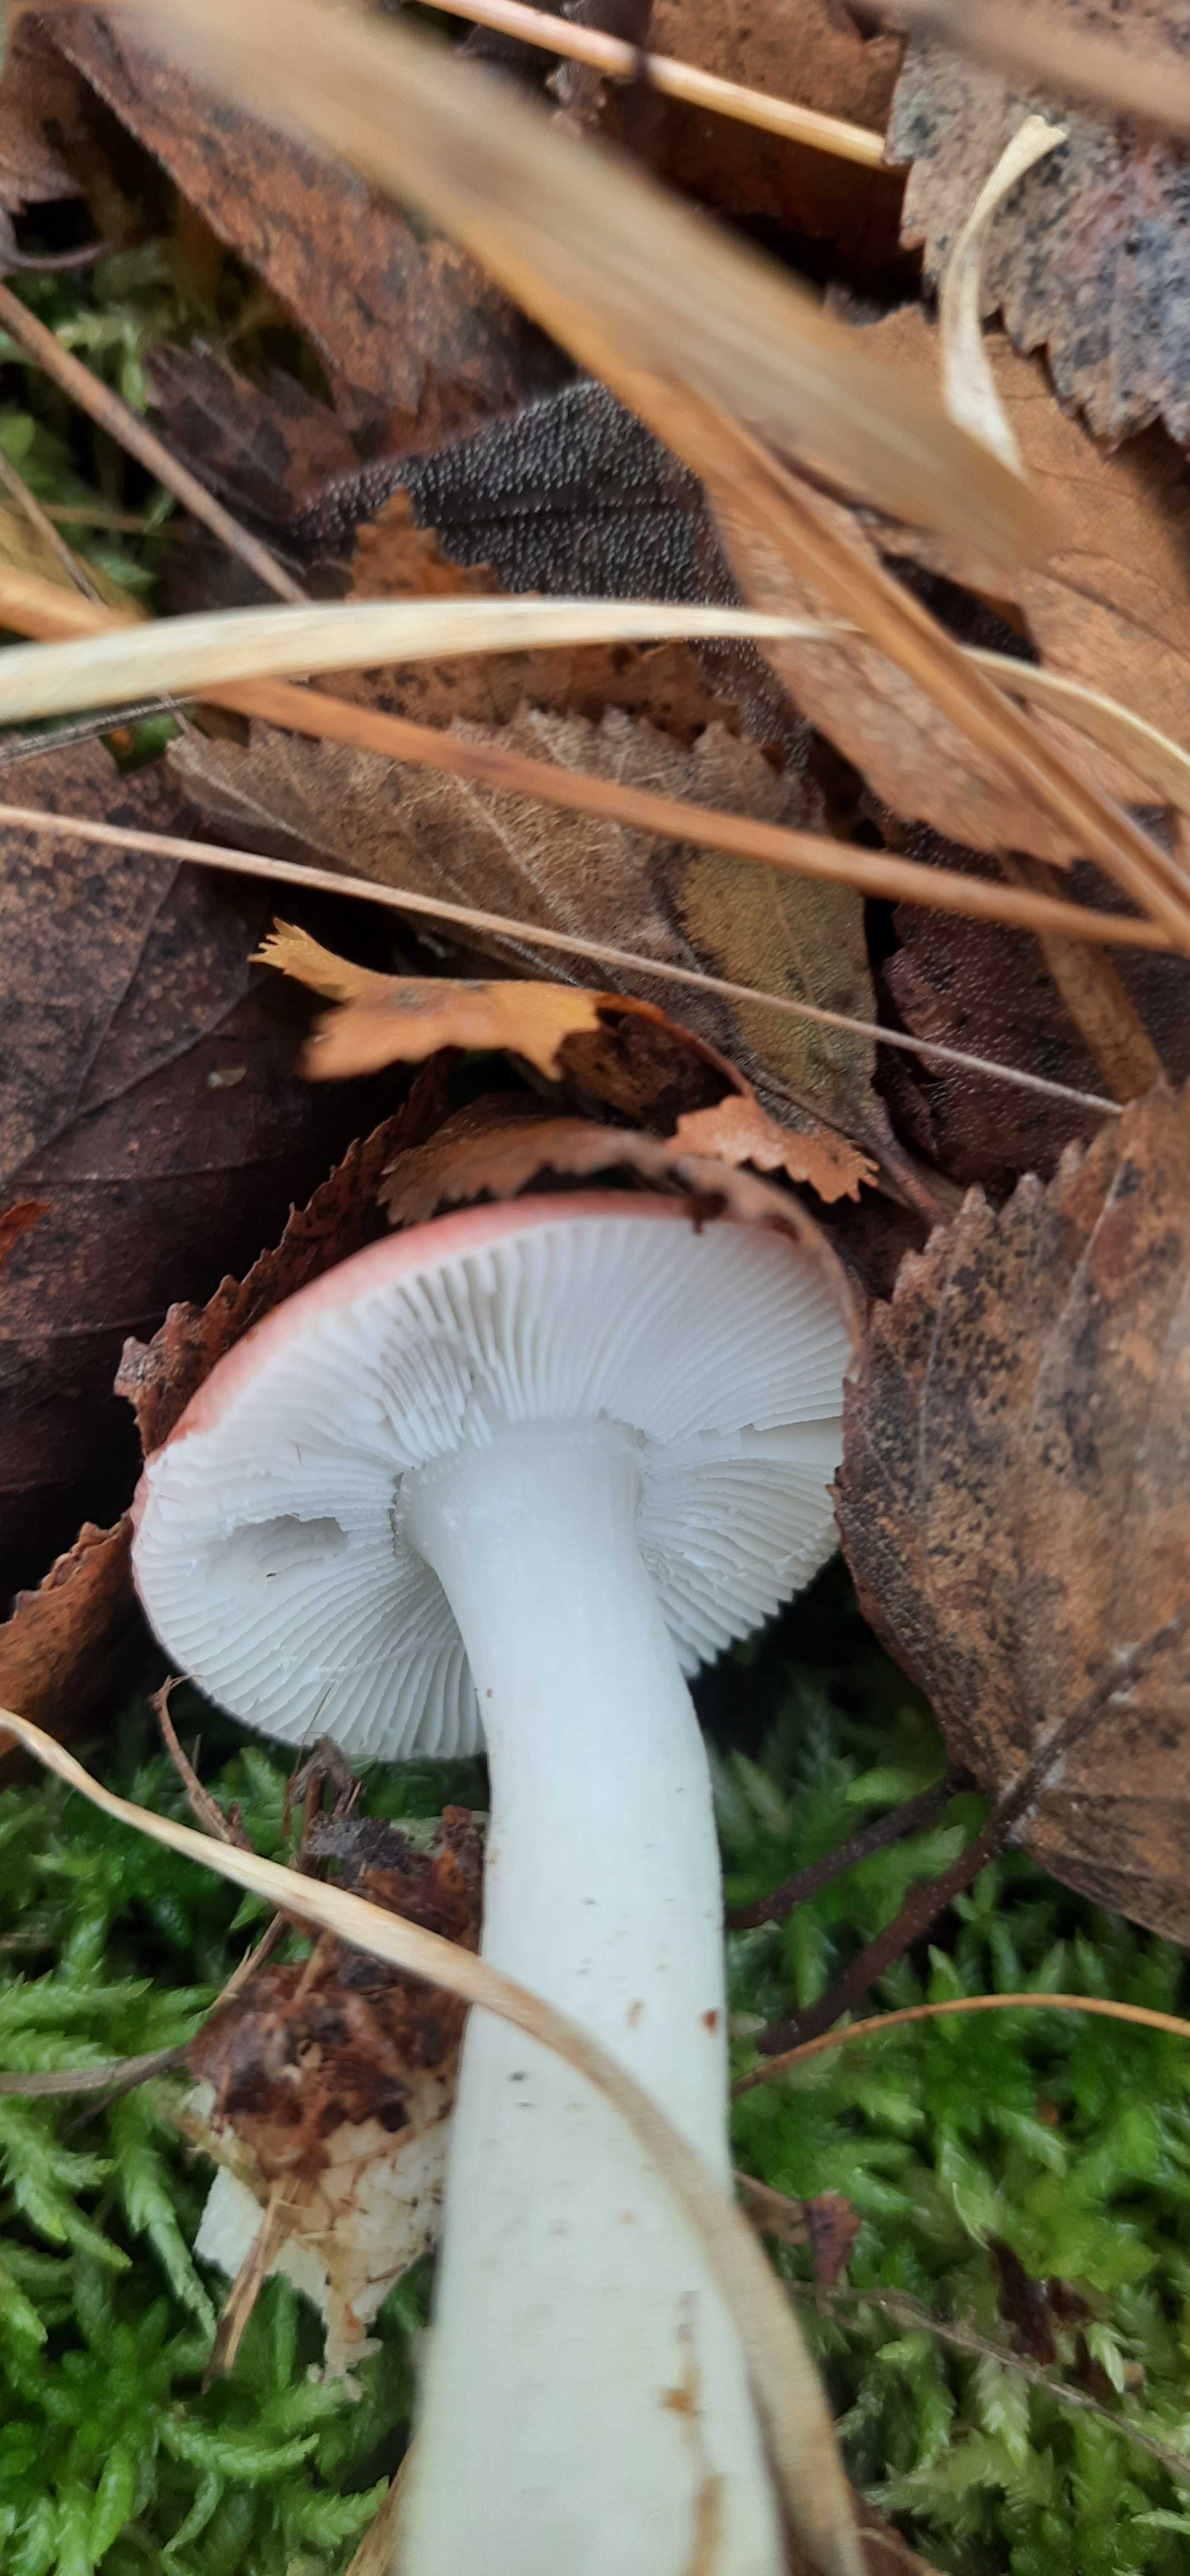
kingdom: Fungi
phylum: Basidiomycota
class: Agaricomycetes
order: Russulales
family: Russulaceae
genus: Russula
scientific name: Russula betularum
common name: bleg gift-skørhat
